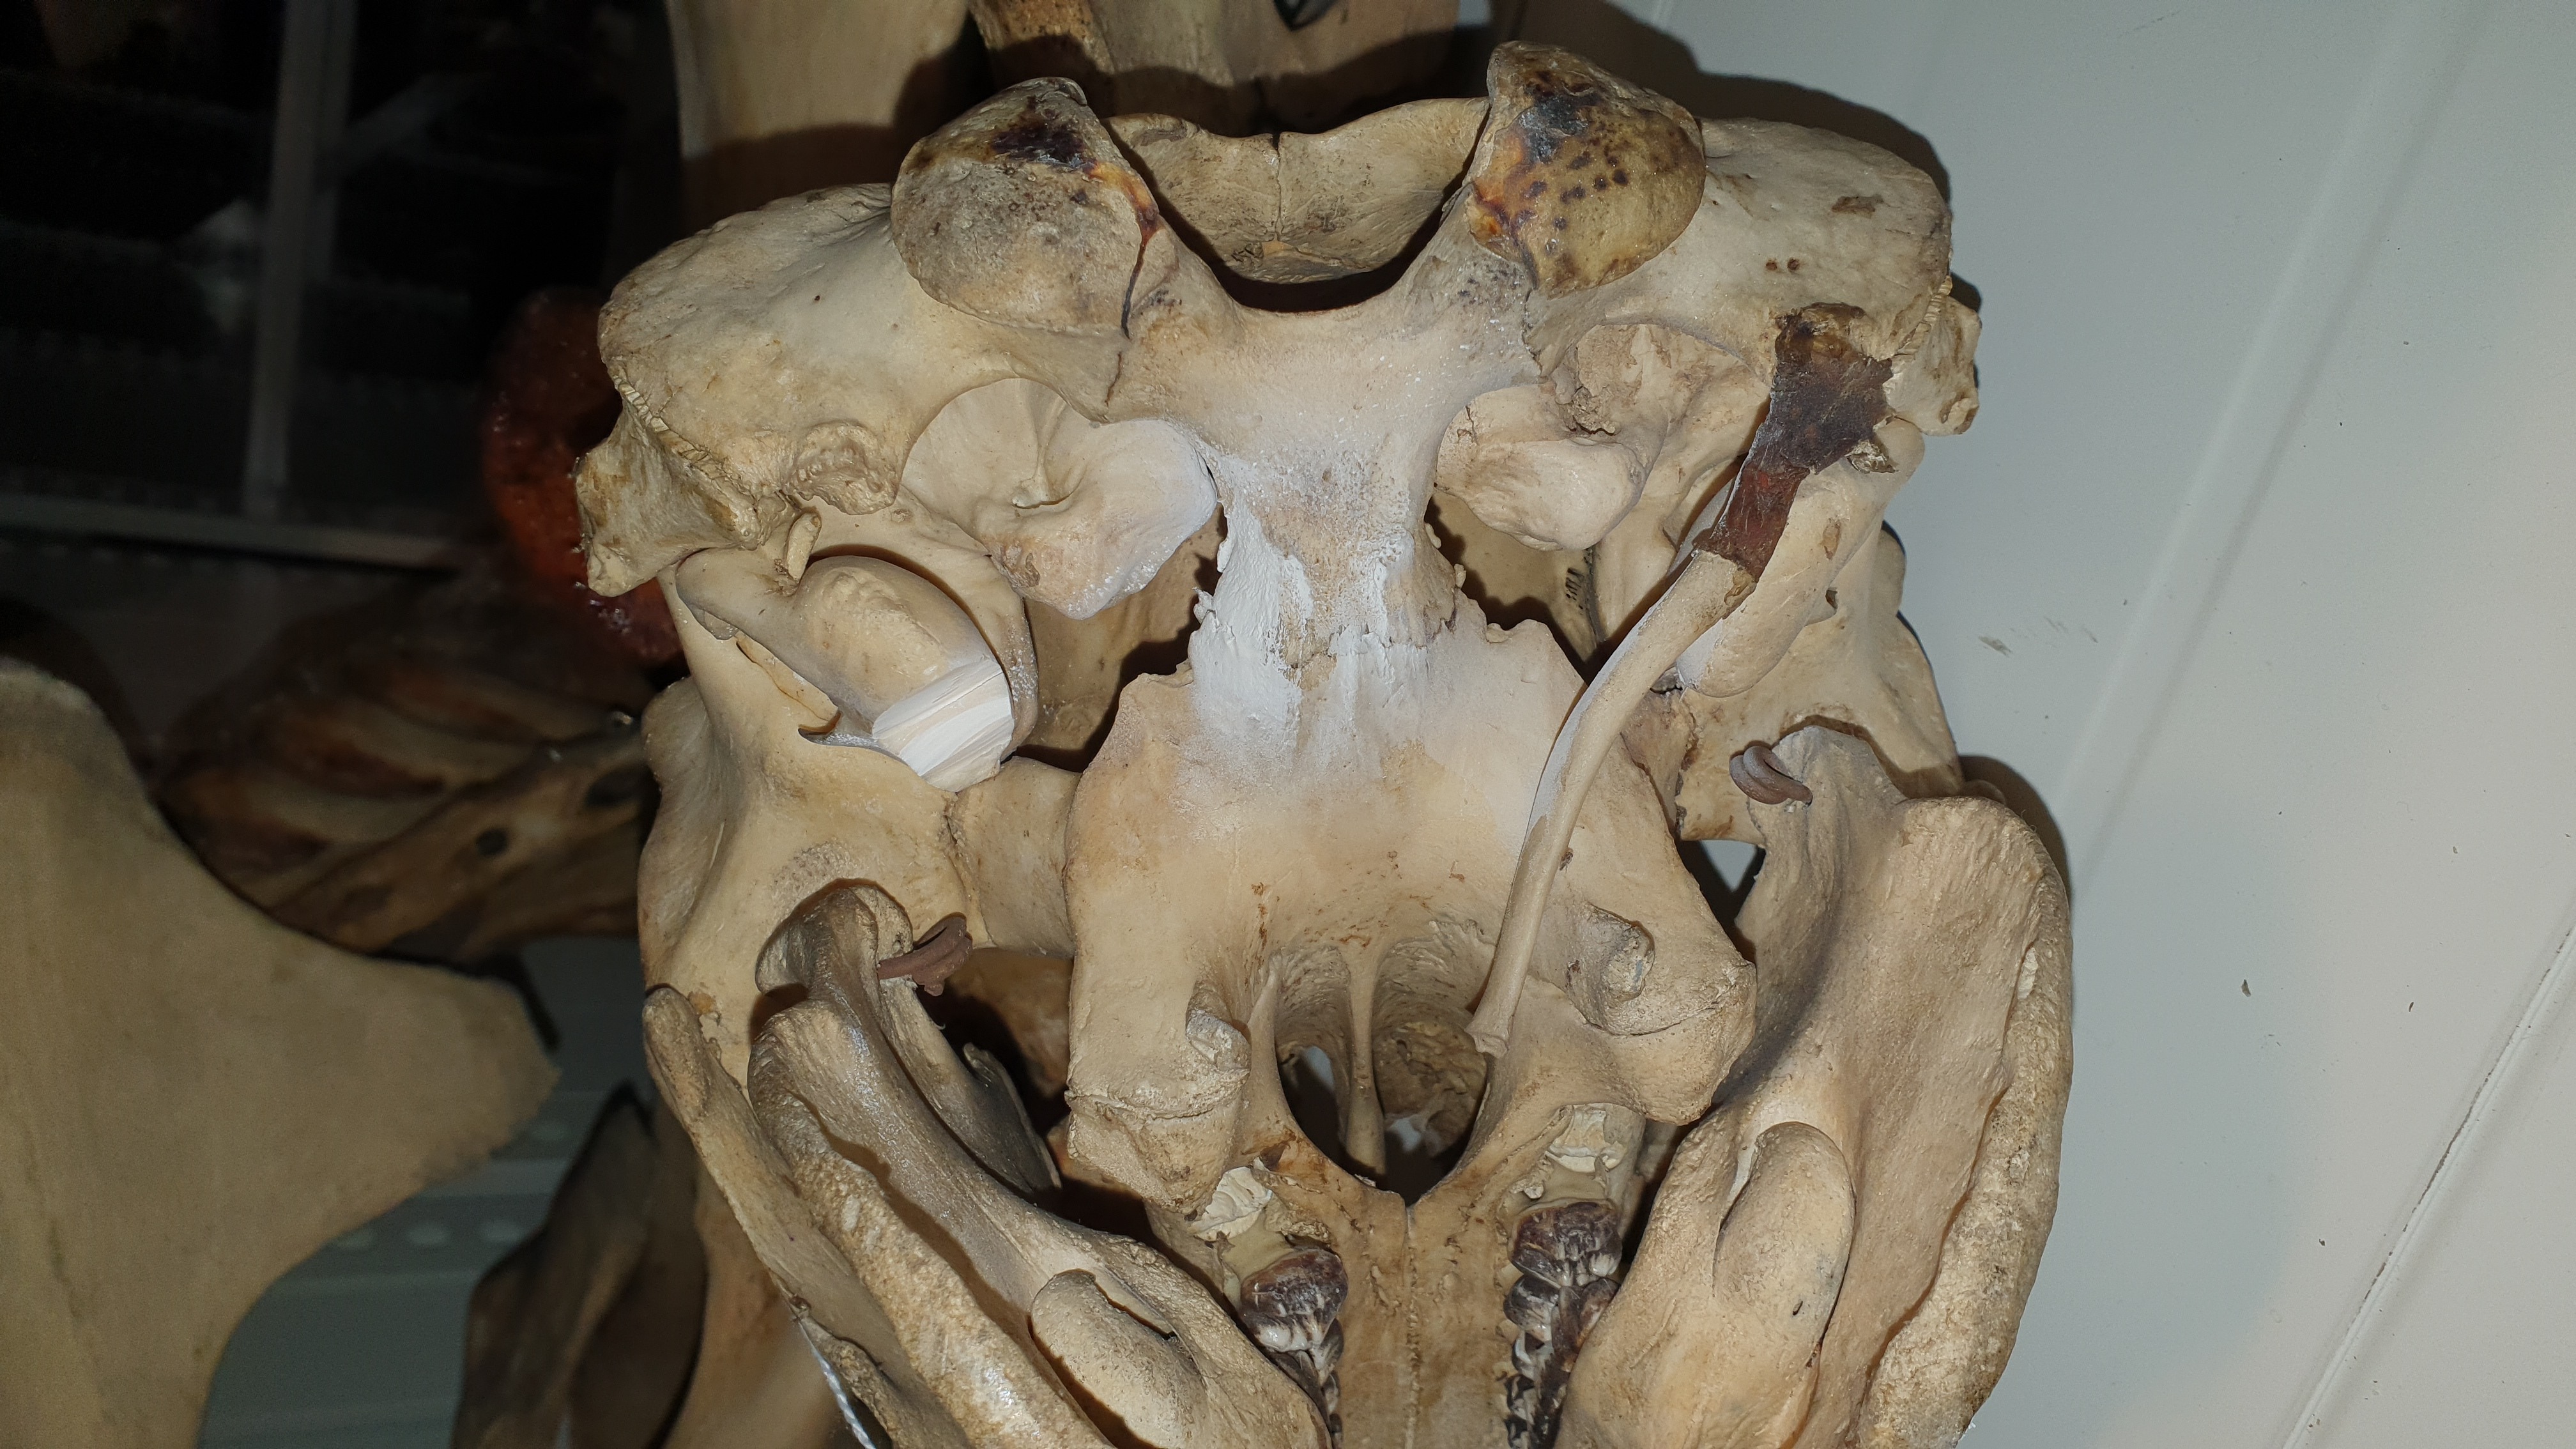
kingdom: Animalia
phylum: Chordata
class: Mammalia
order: Sirenia
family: Trichechidae
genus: Trichechus
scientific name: Trichechus manatus
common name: West indian manatee
